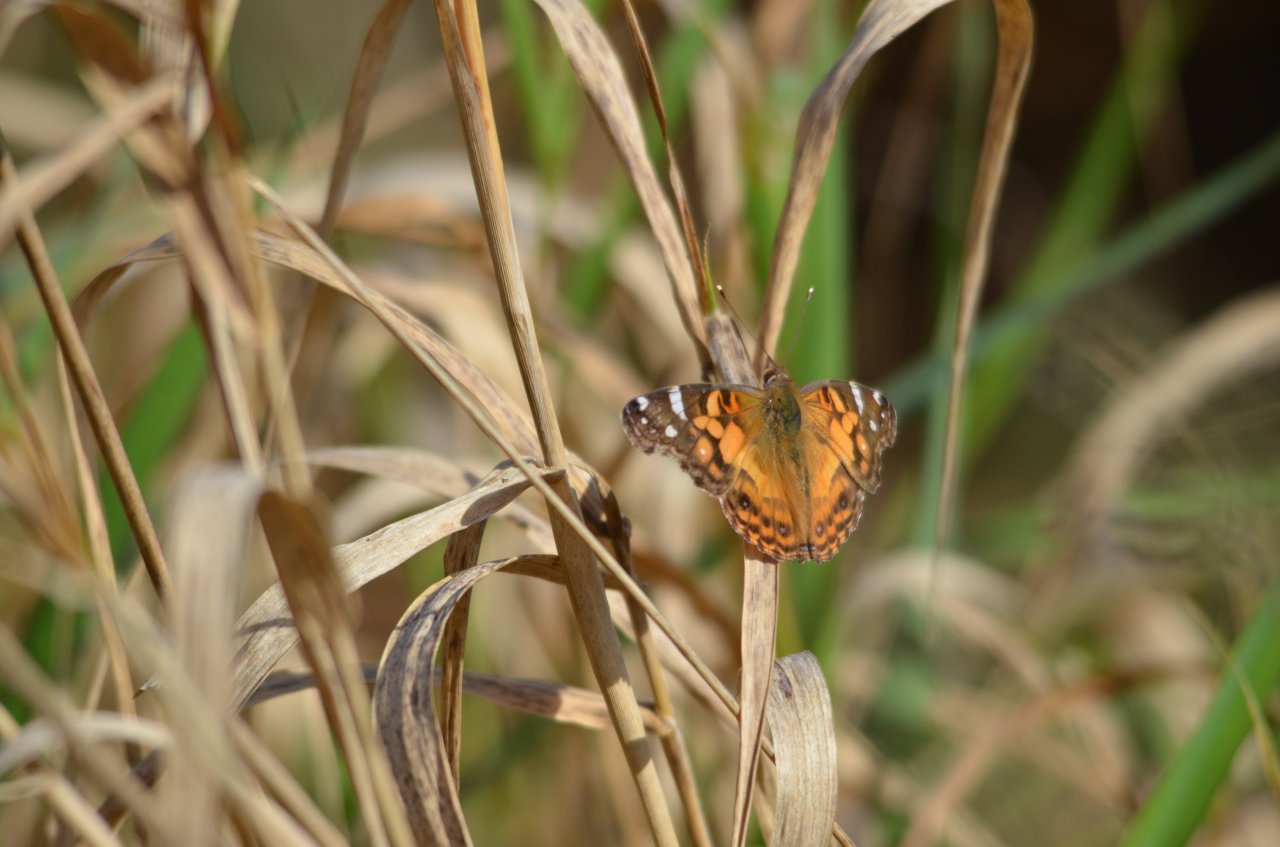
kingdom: Animalia
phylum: Arthropoda
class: Insecta
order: Lepidoptera
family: Nymphalidae
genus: Vanessa
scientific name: Vanessa virginiensis
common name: American Lady
